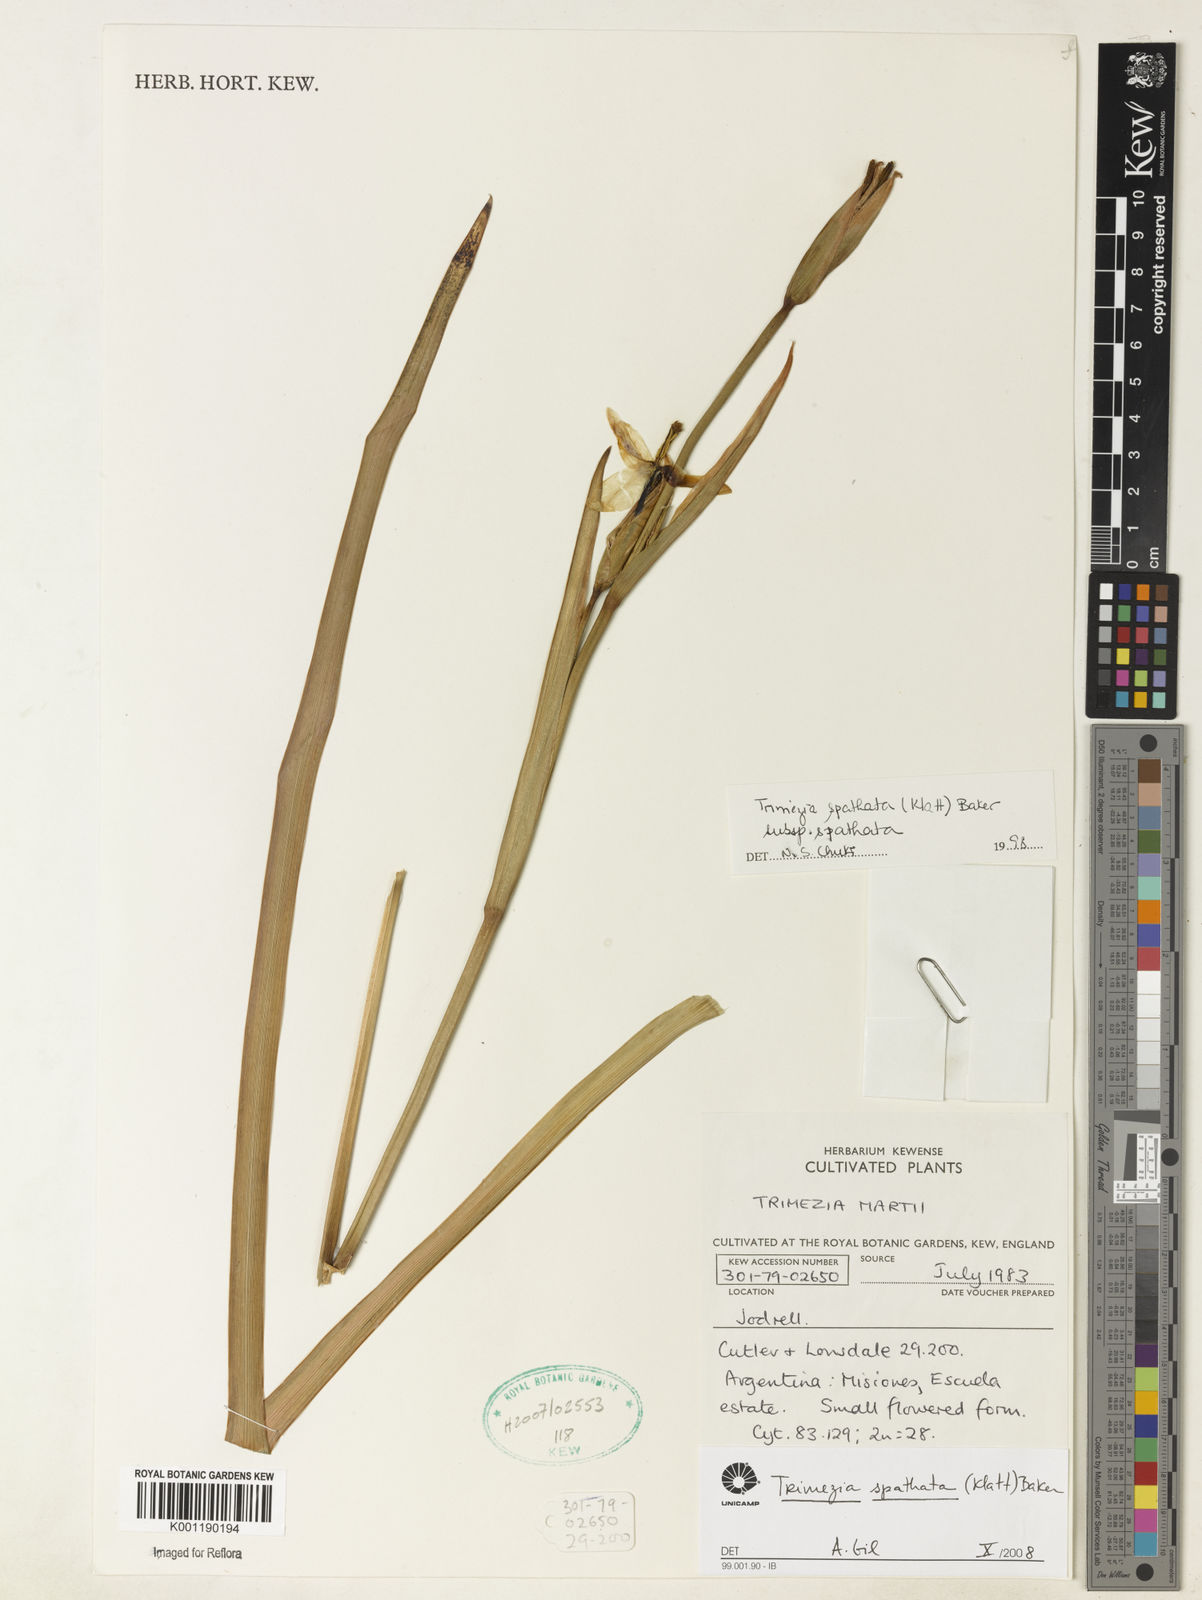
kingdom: Plantae
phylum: Tracheophyta
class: Liliopsida
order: Asparagales
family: Iridaceae
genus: Trimezia
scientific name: Trimezia spathata
